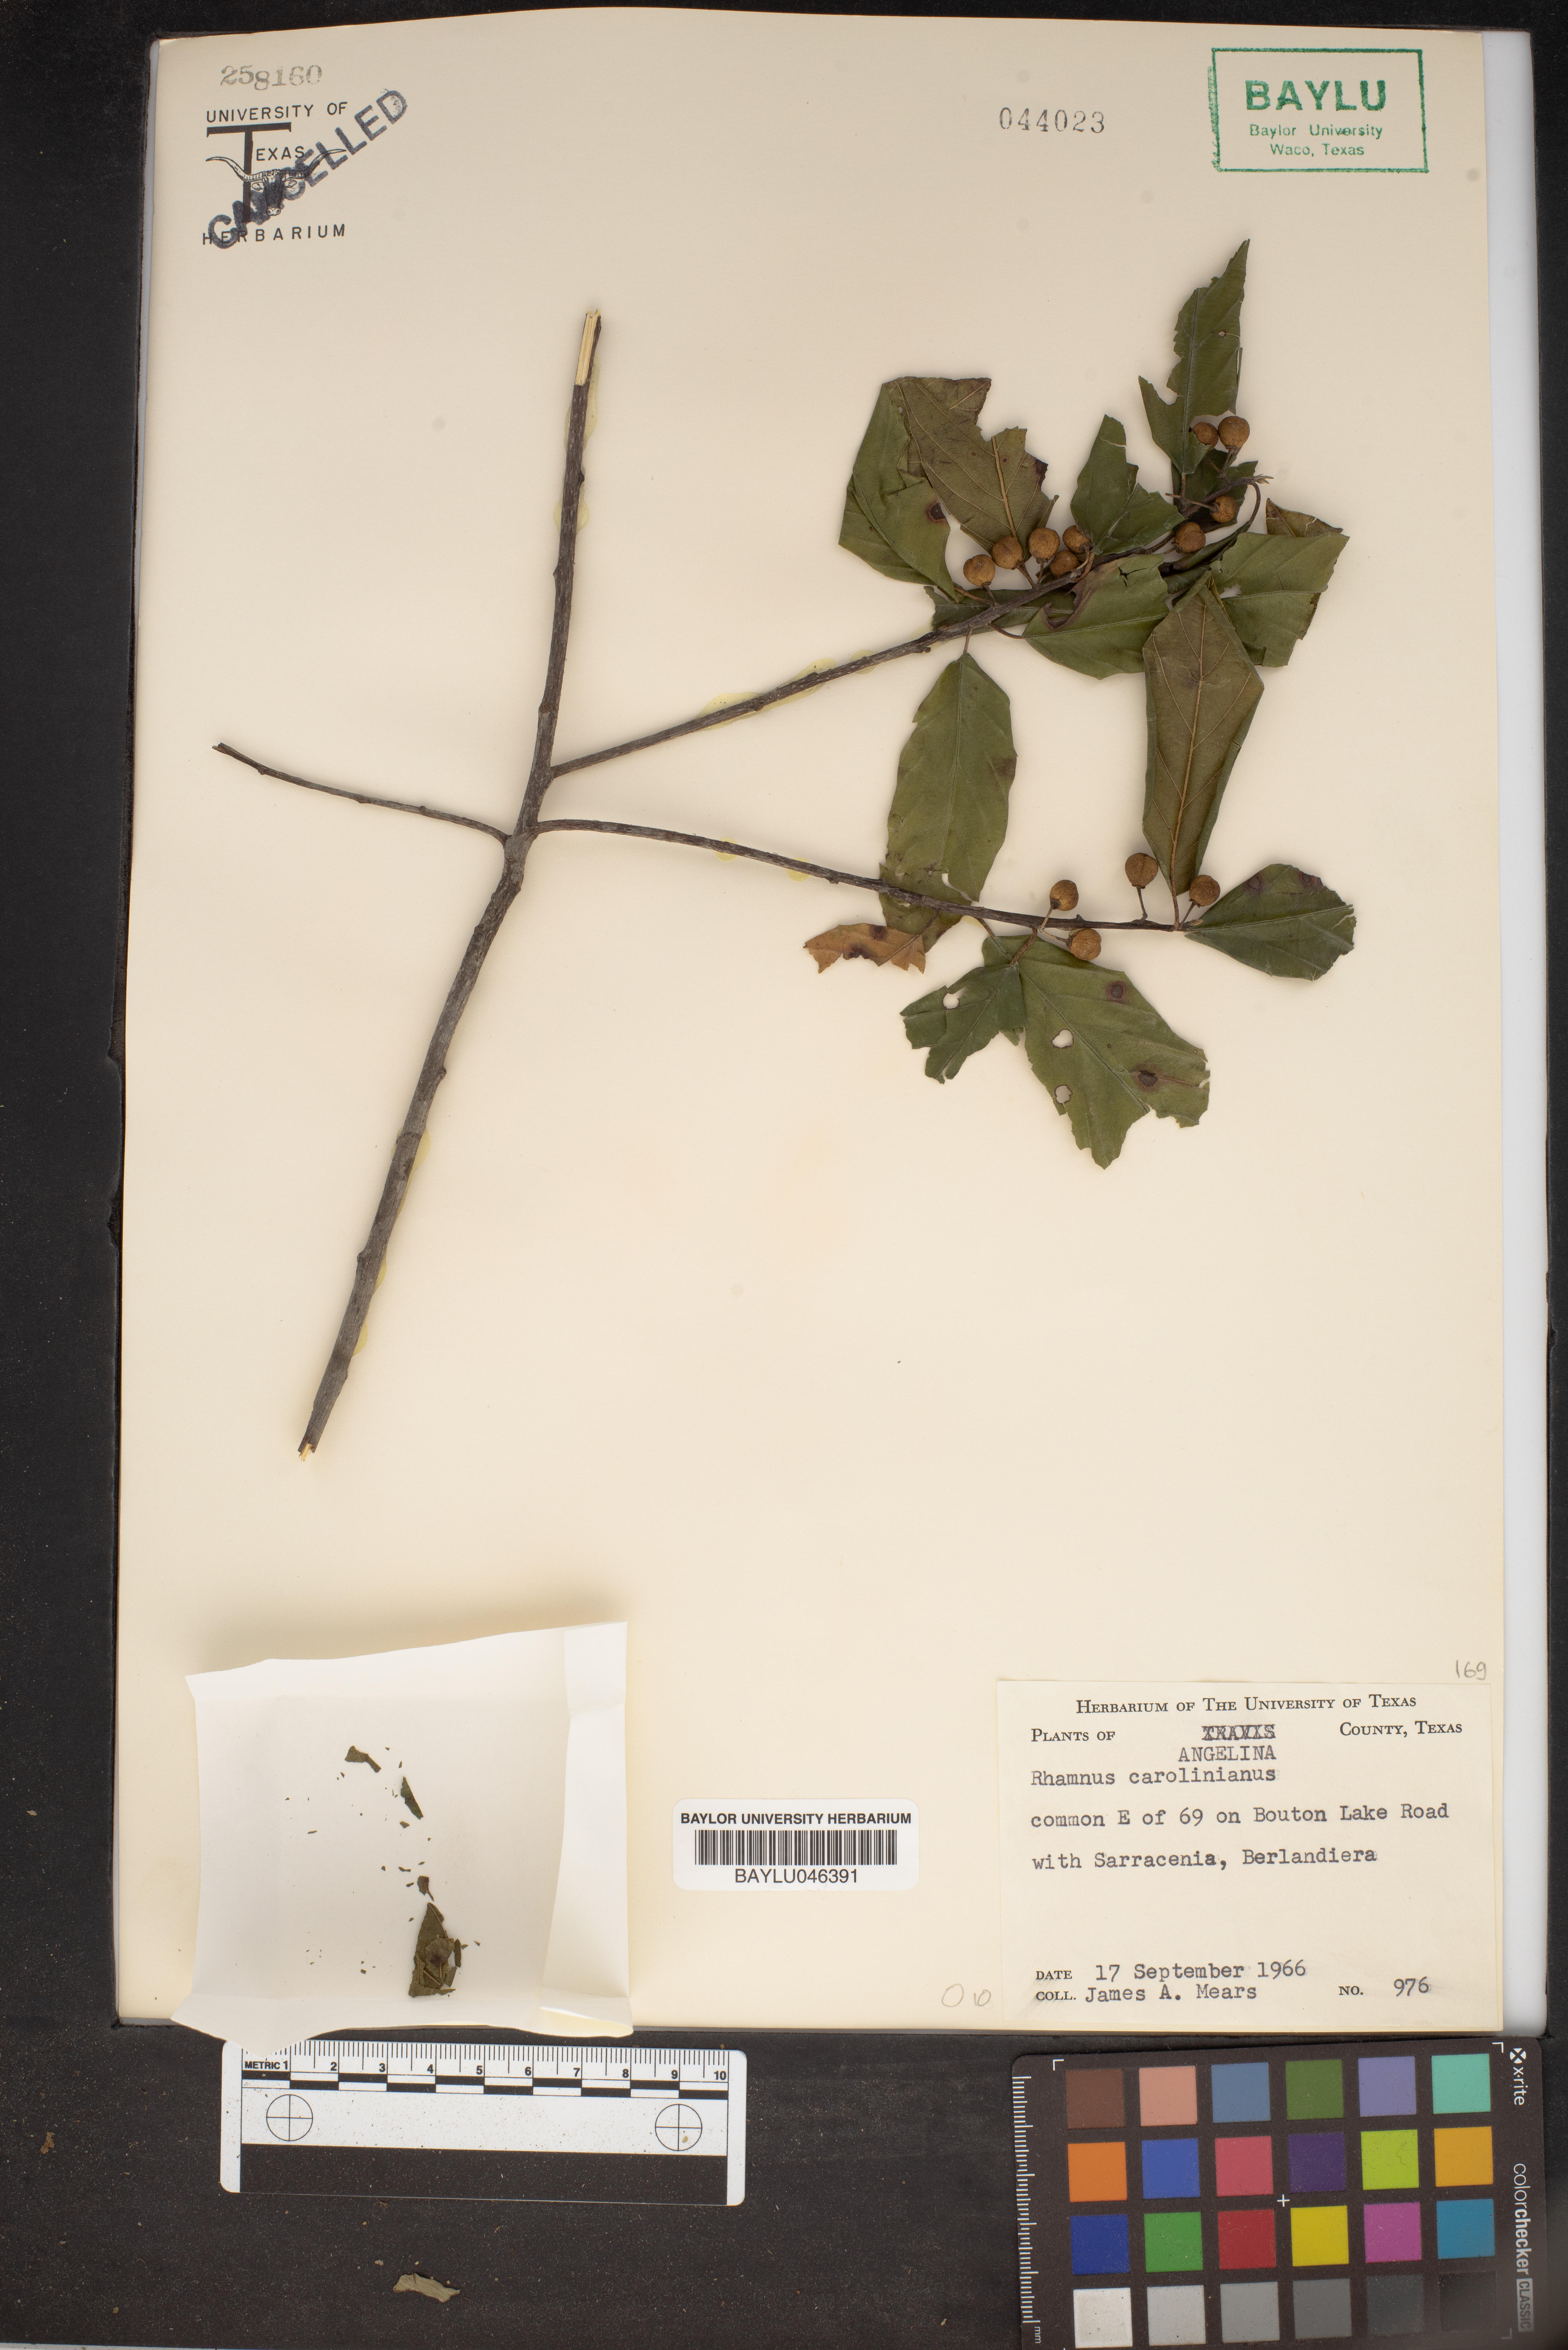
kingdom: Plantae
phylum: Tracheophyta
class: Magnoliopsida
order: Rosales
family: Rhamnaceae
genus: Frangula
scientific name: Frangula caroliniana
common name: Carolina buckthorn
